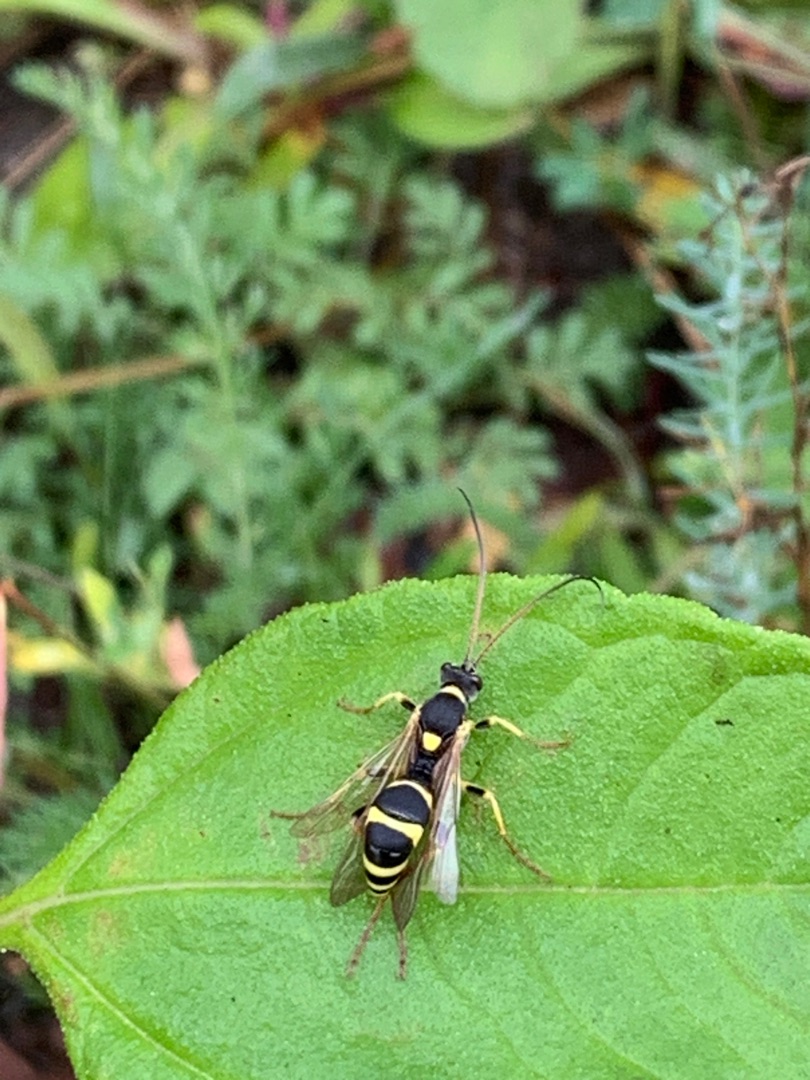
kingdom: Animalia
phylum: Arthropoda
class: Insecta
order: Hymenoptera
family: Ichneumonidae
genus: Amblyteles
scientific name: Amblyteles armatorius
